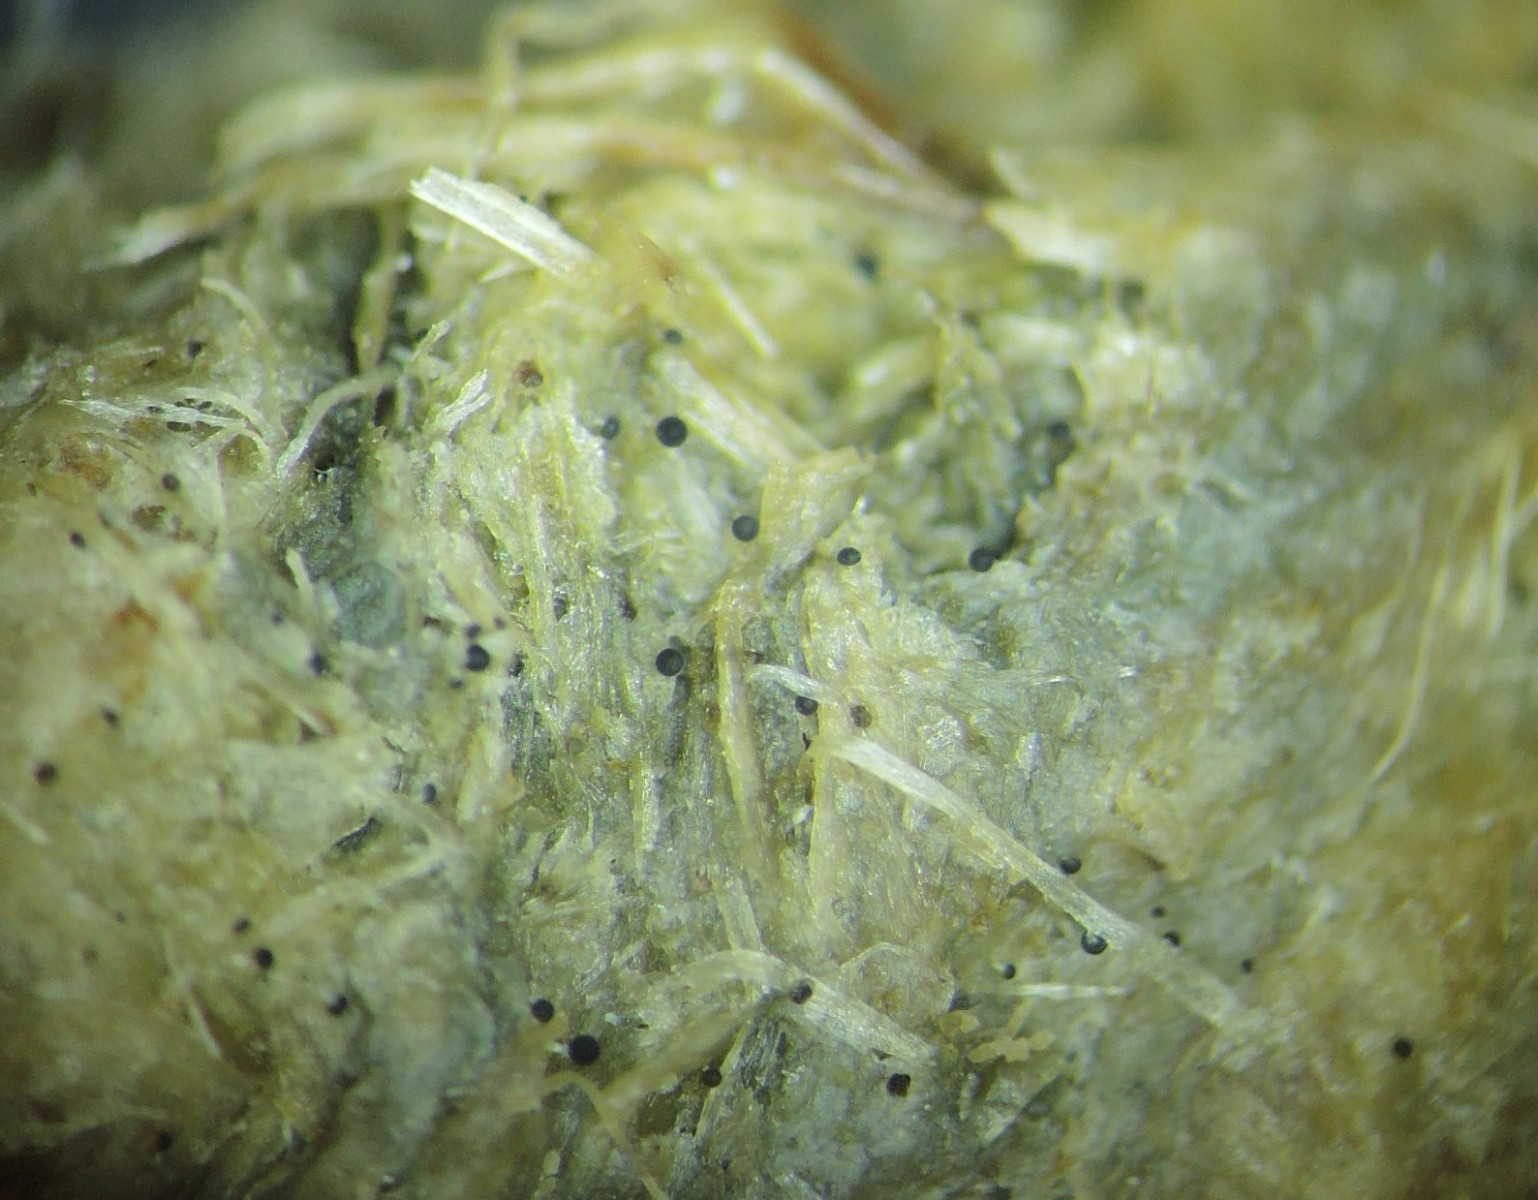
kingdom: Fungi
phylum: Mucoromycota
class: Mucoromycetes
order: Mucorales
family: Mucoraceae
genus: Pilaira
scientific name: Pilaira anomala
